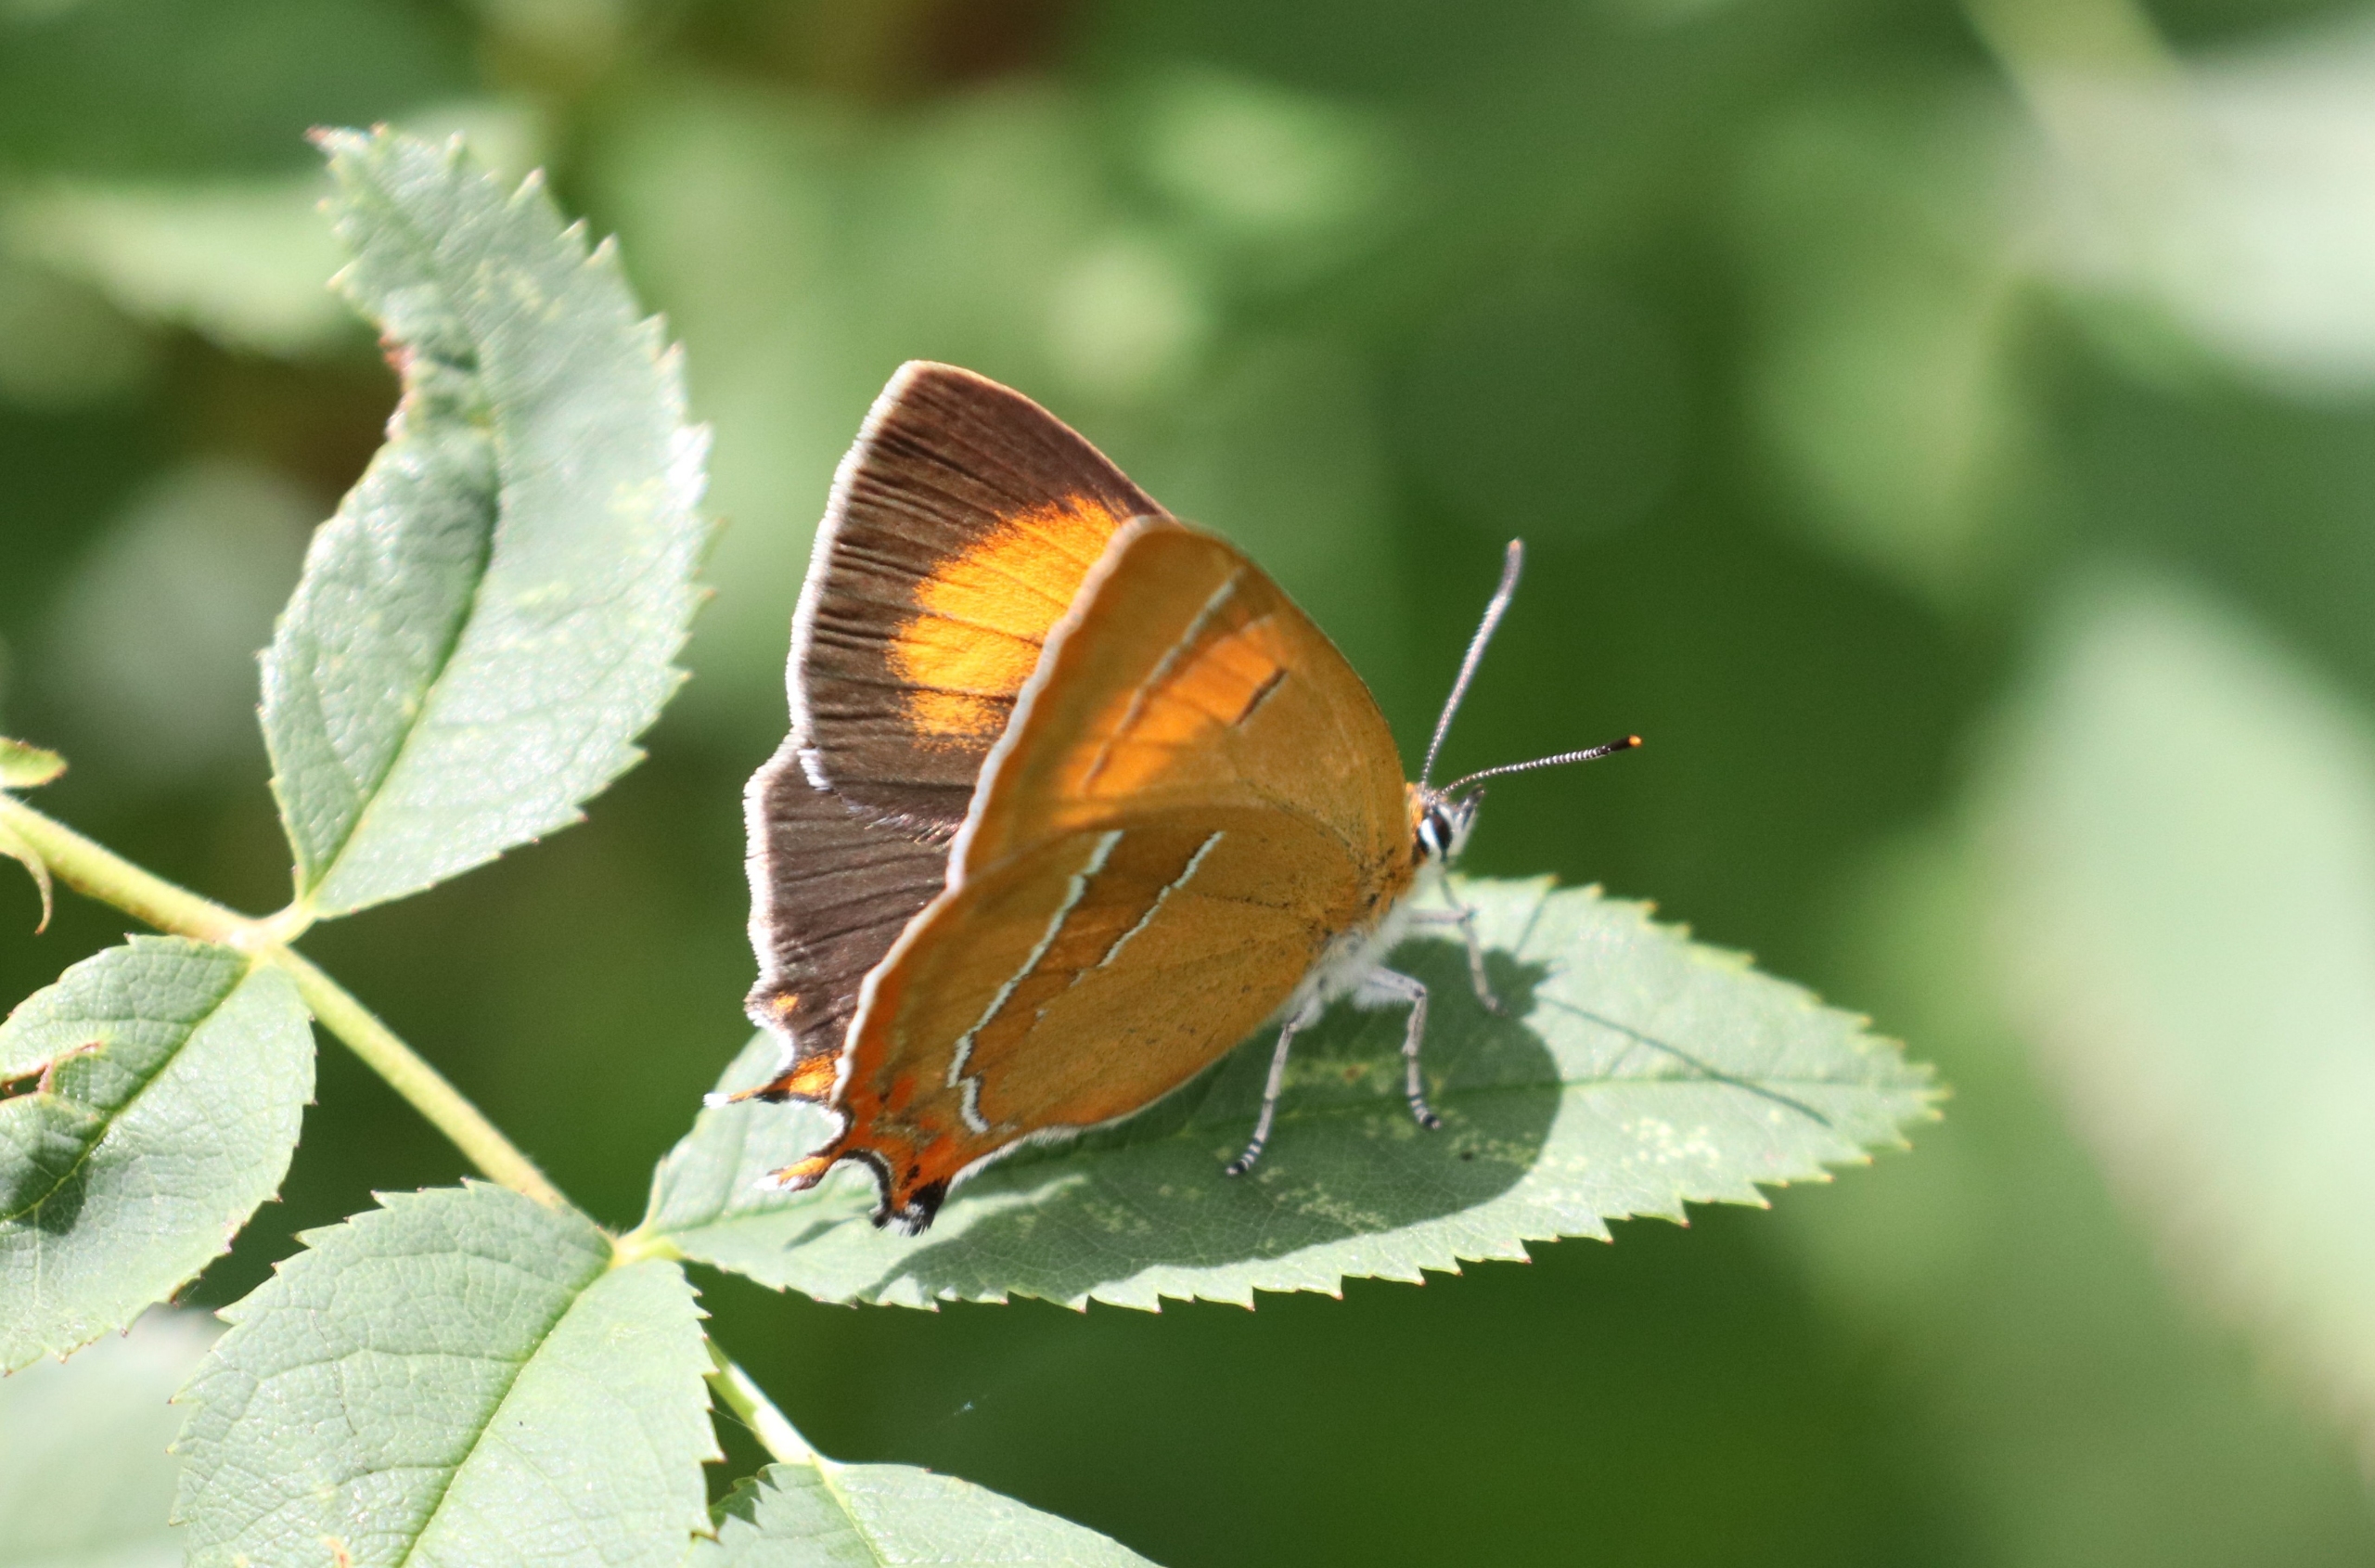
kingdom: Animalia
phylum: Arthropoda
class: Insecta
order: Lepidoptera
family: Lycaenidae
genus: Thecla
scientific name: Thecla betulae
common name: Guldhale
